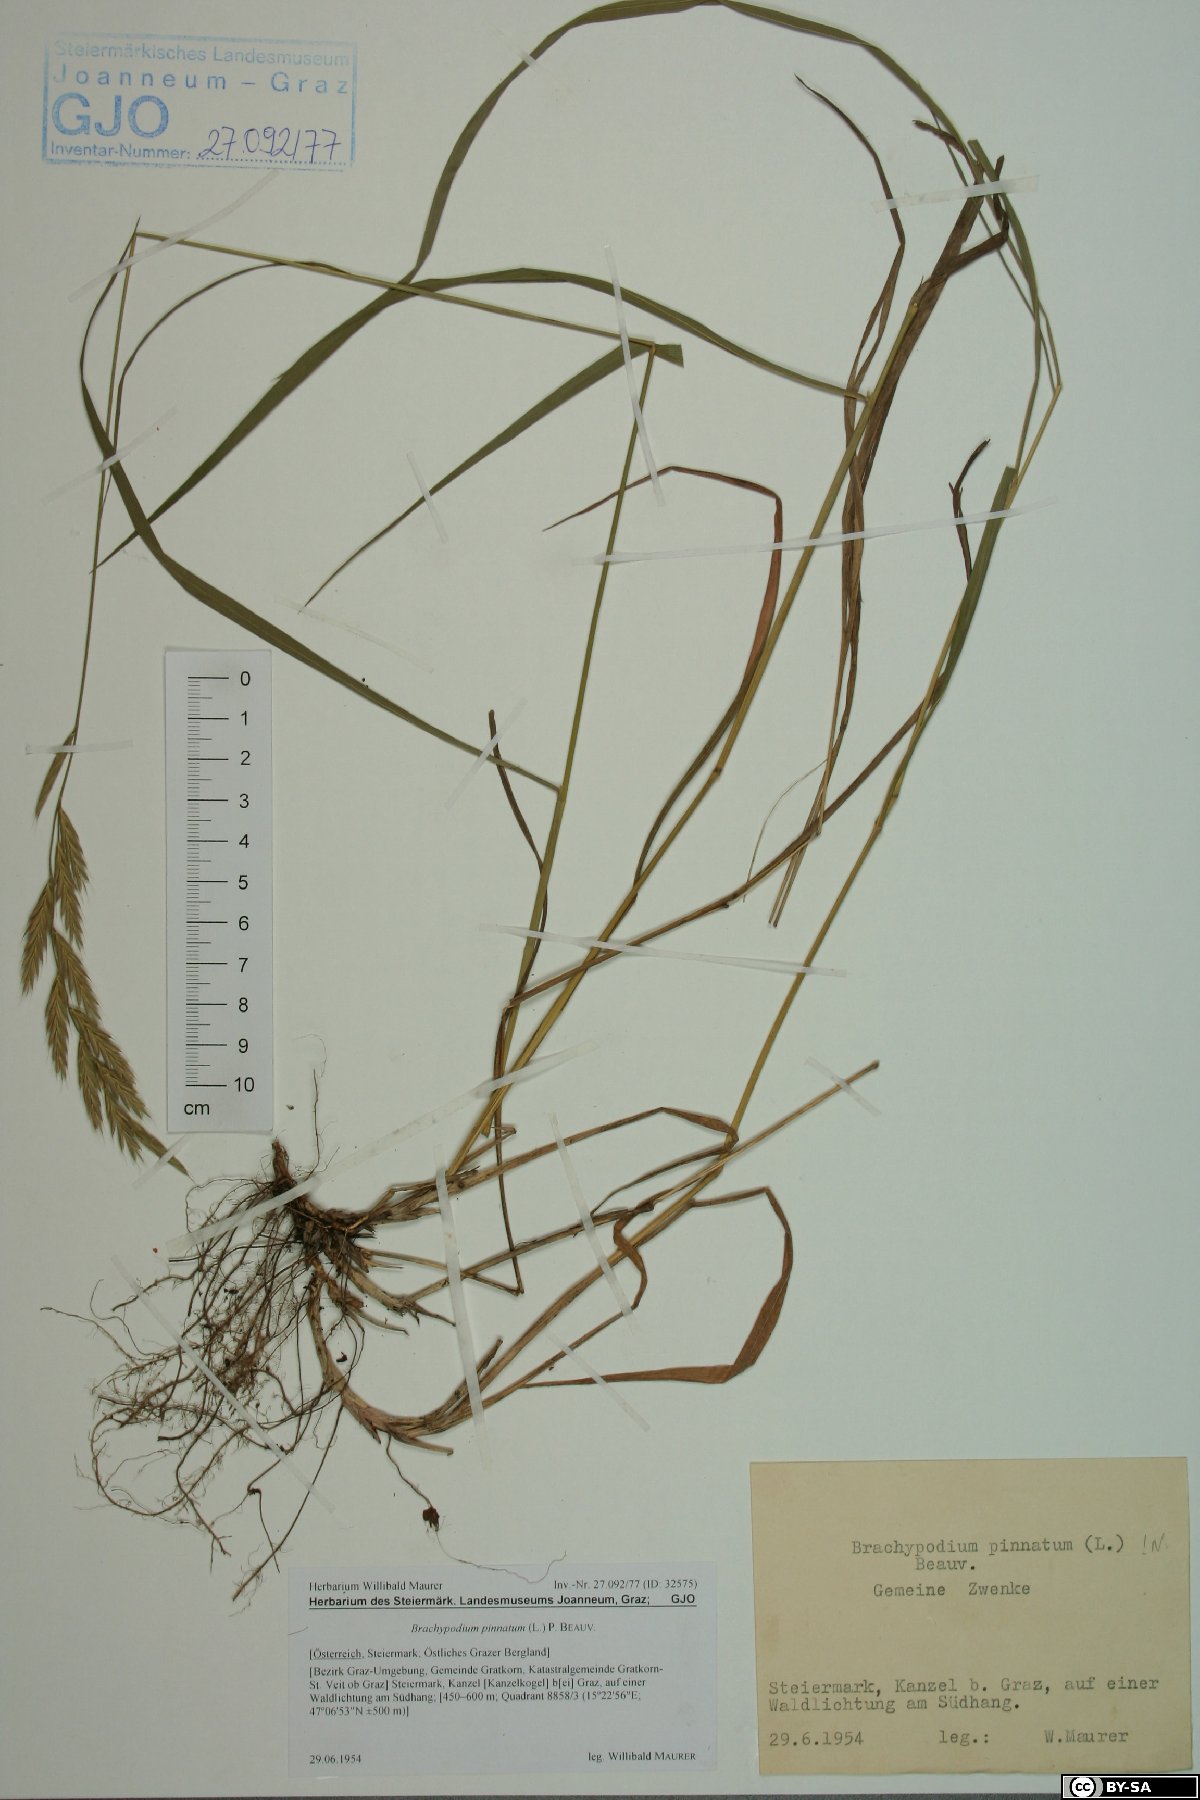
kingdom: Plantae
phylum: Tracheophyta
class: Liliopsida
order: Poales
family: Poaceae
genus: Brachypodium
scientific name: Brachypodium pinnatum
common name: Tor grass
